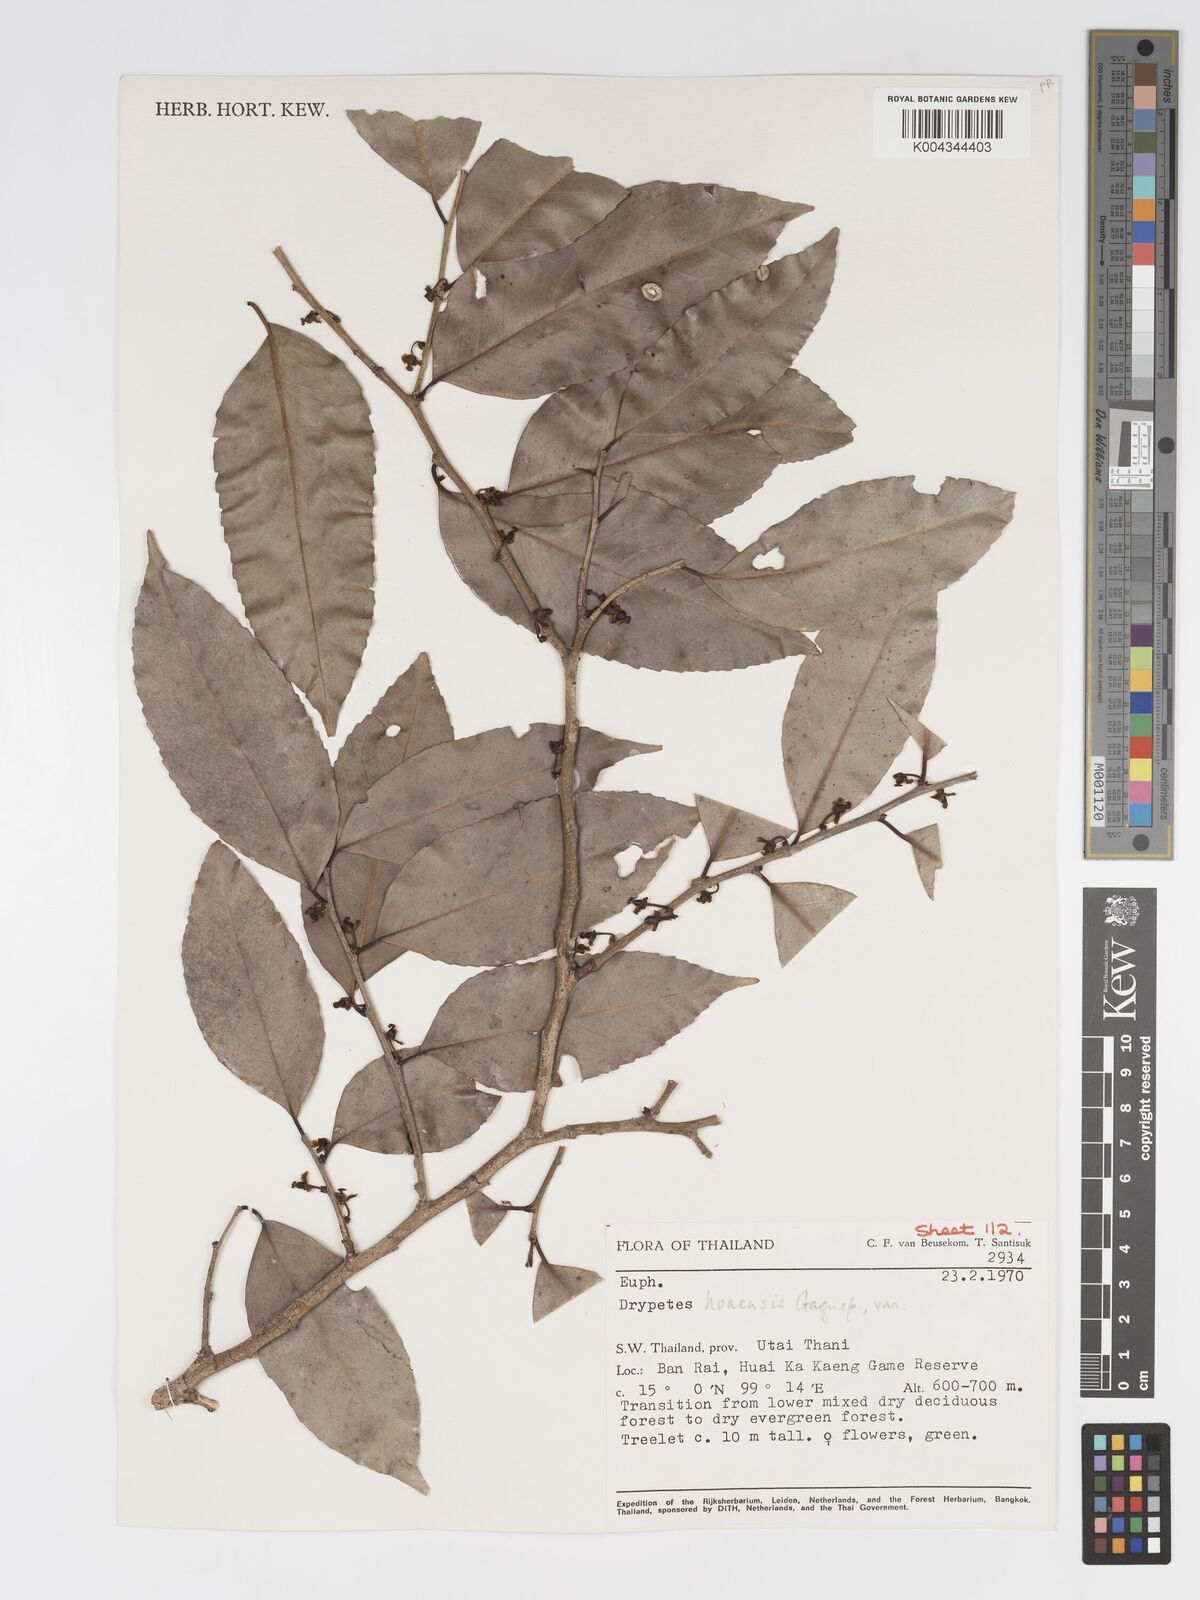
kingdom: Plantae
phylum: Tracheophyta
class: Magnoliopsida
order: Malpighiales
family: Putranjivaceae
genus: Drypetes
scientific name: Drypetes hoaensis
